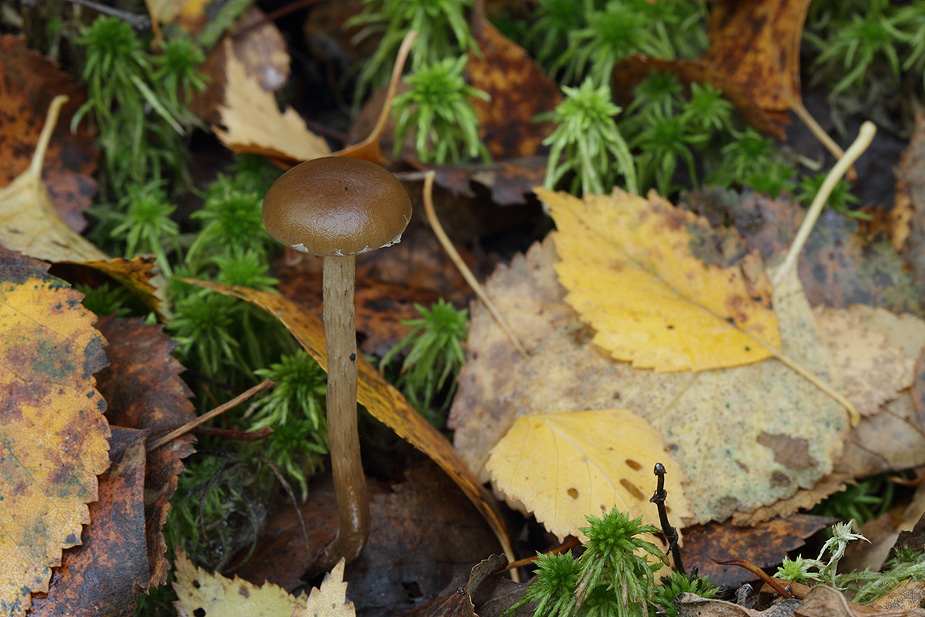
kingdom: Fungi
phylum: Basidiomycota
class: Agaricomycetes
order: Agaricales
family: Strophariaceae
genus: Hypholoma
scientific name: Hypholoma myosotis
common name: slimet svovlhat
